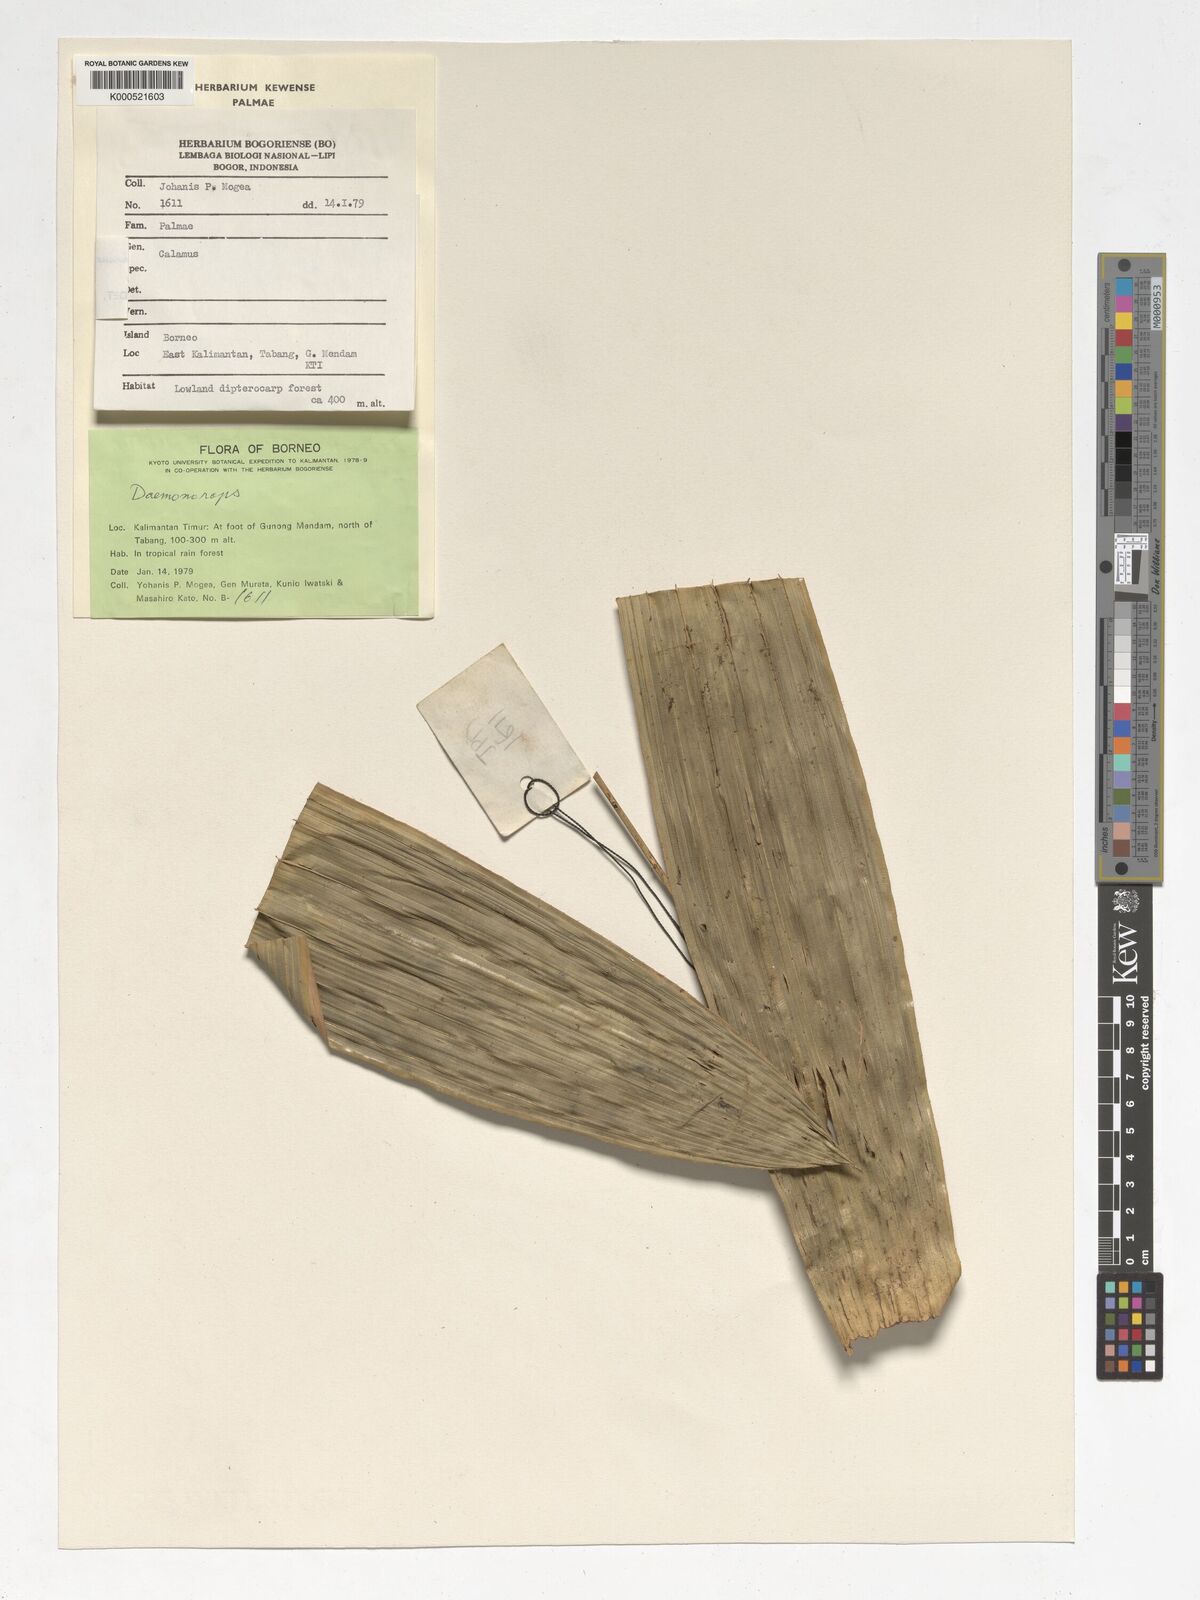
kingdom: Plantae
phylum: Tracheophyta
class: Liliopsida
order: Arecales
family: Arecaceae
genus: Calamus
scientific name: Calamus optimus
